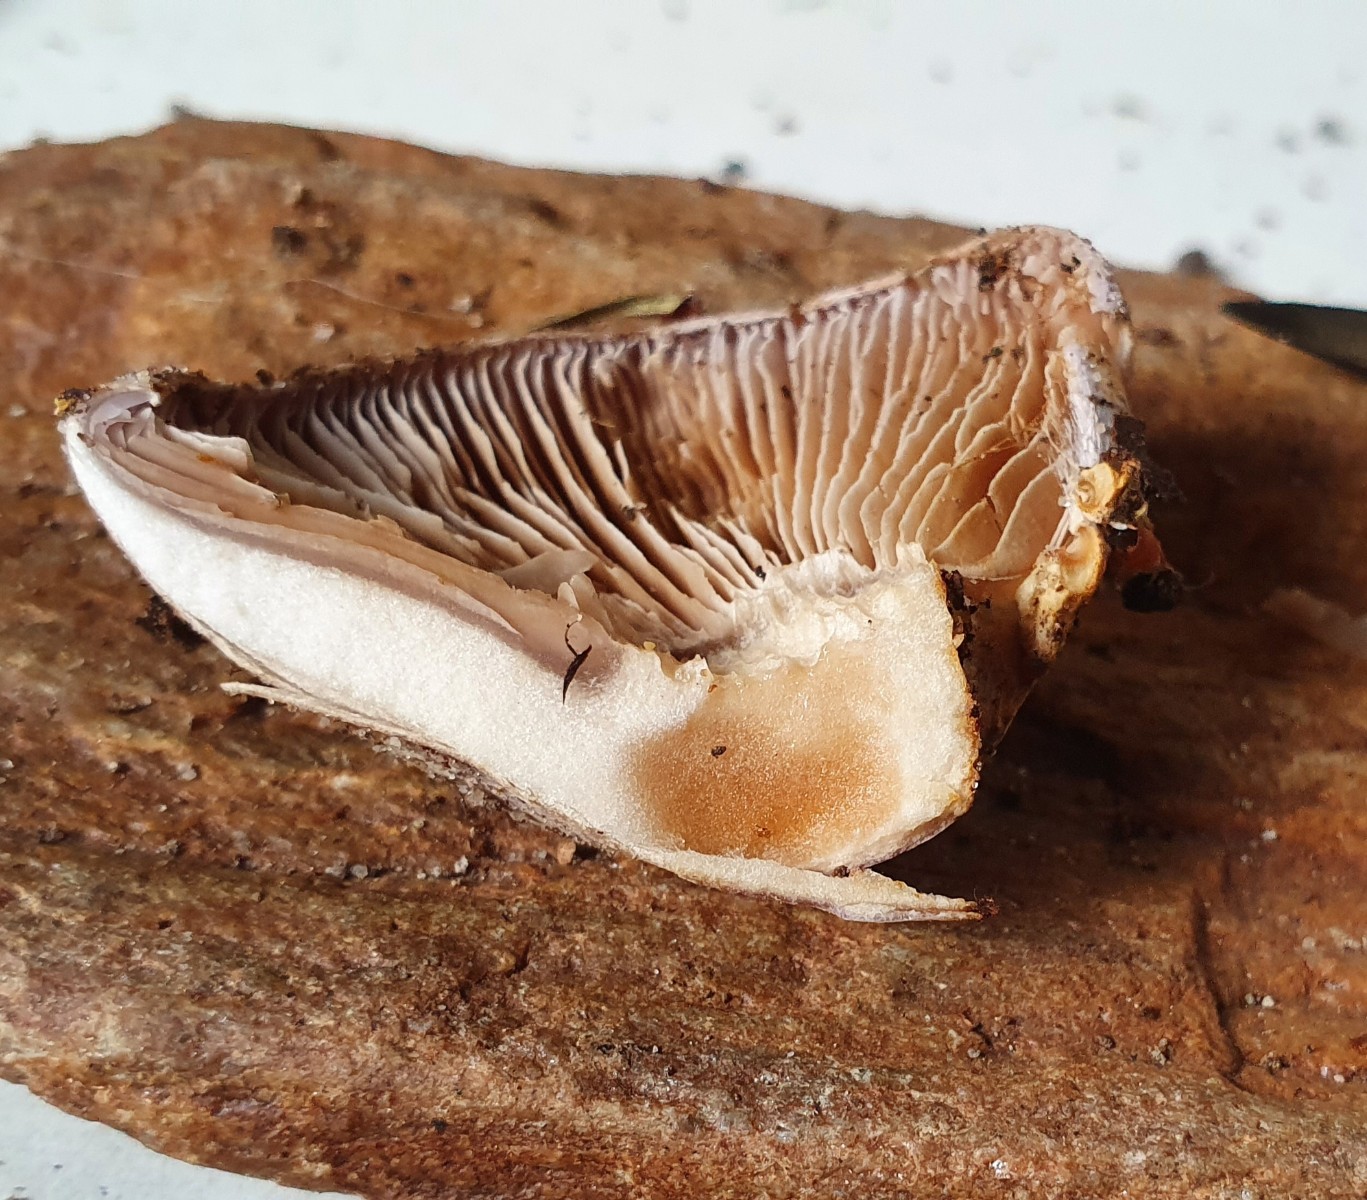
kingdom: Fungi
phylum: Basidiomycota
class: Agaricomycetes
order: Agaricales
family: Cortinariaceae
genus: Cortinarius
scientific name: Cortinarius caerulescens
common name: blåkødet slørhat
